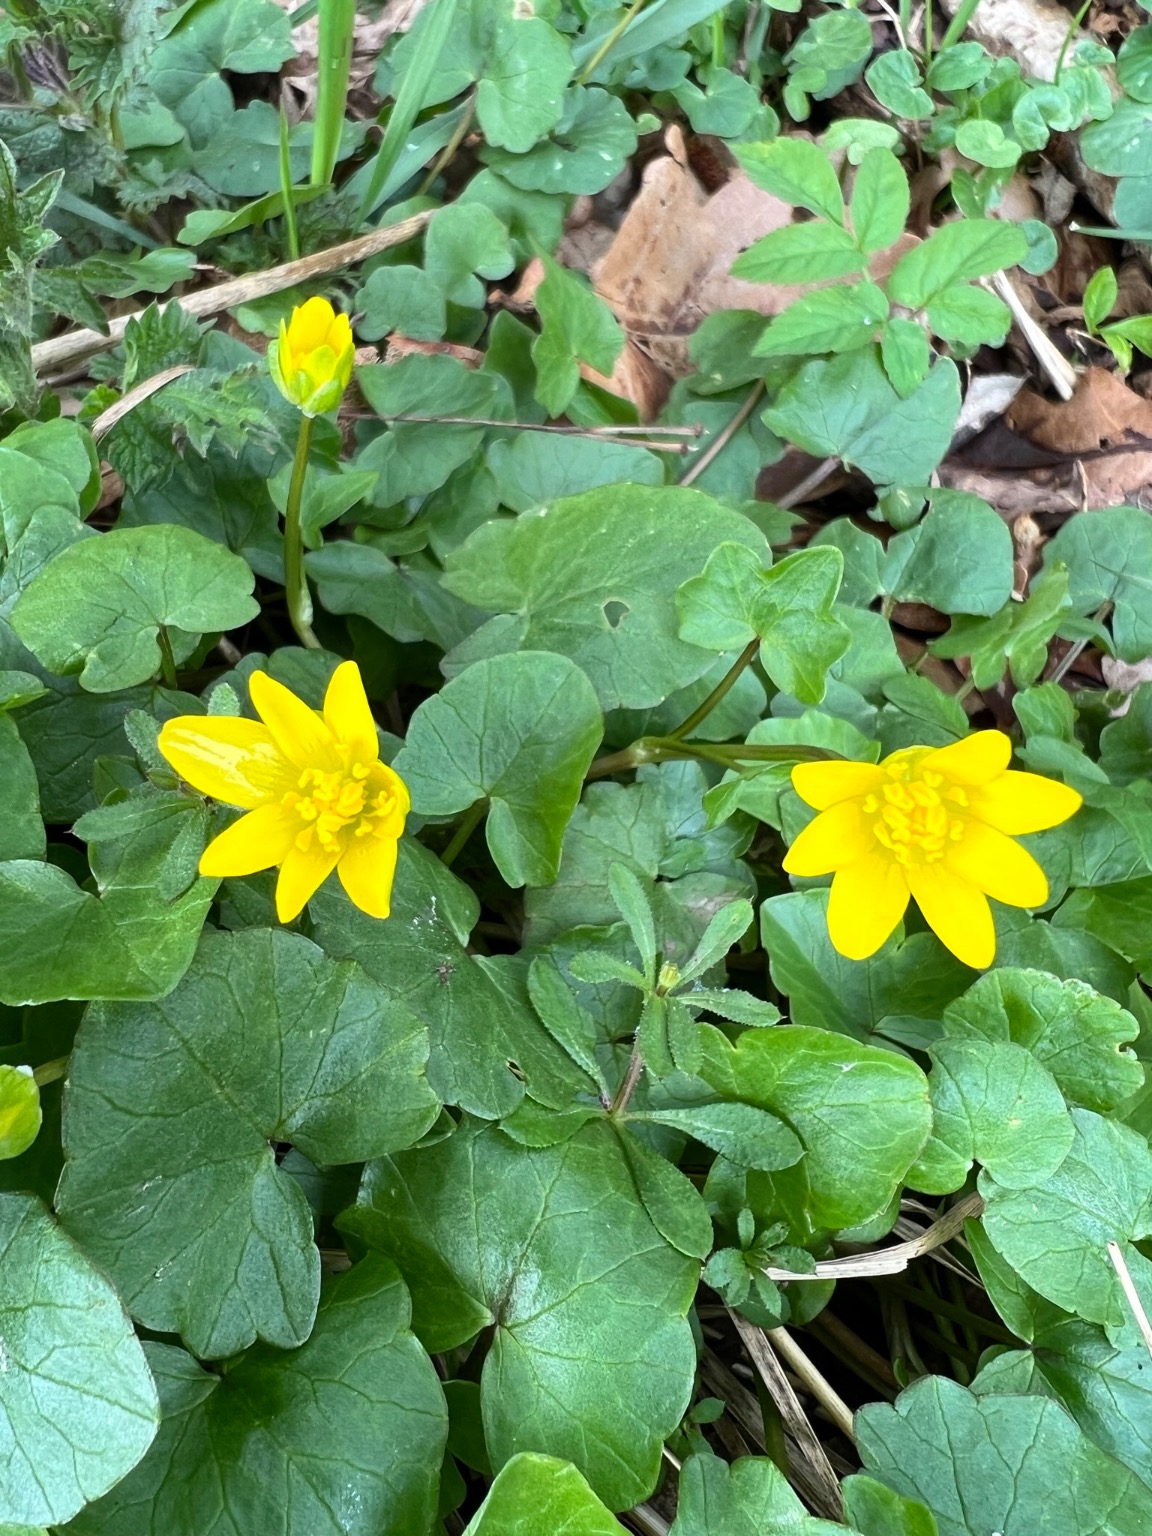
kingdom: Plantae
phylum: Tracheophyta
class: Magnoliopsida
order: Ranunculales
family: Ranunculaceae
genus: Ficaria
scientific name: Ficaria verna
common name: Vorterod
